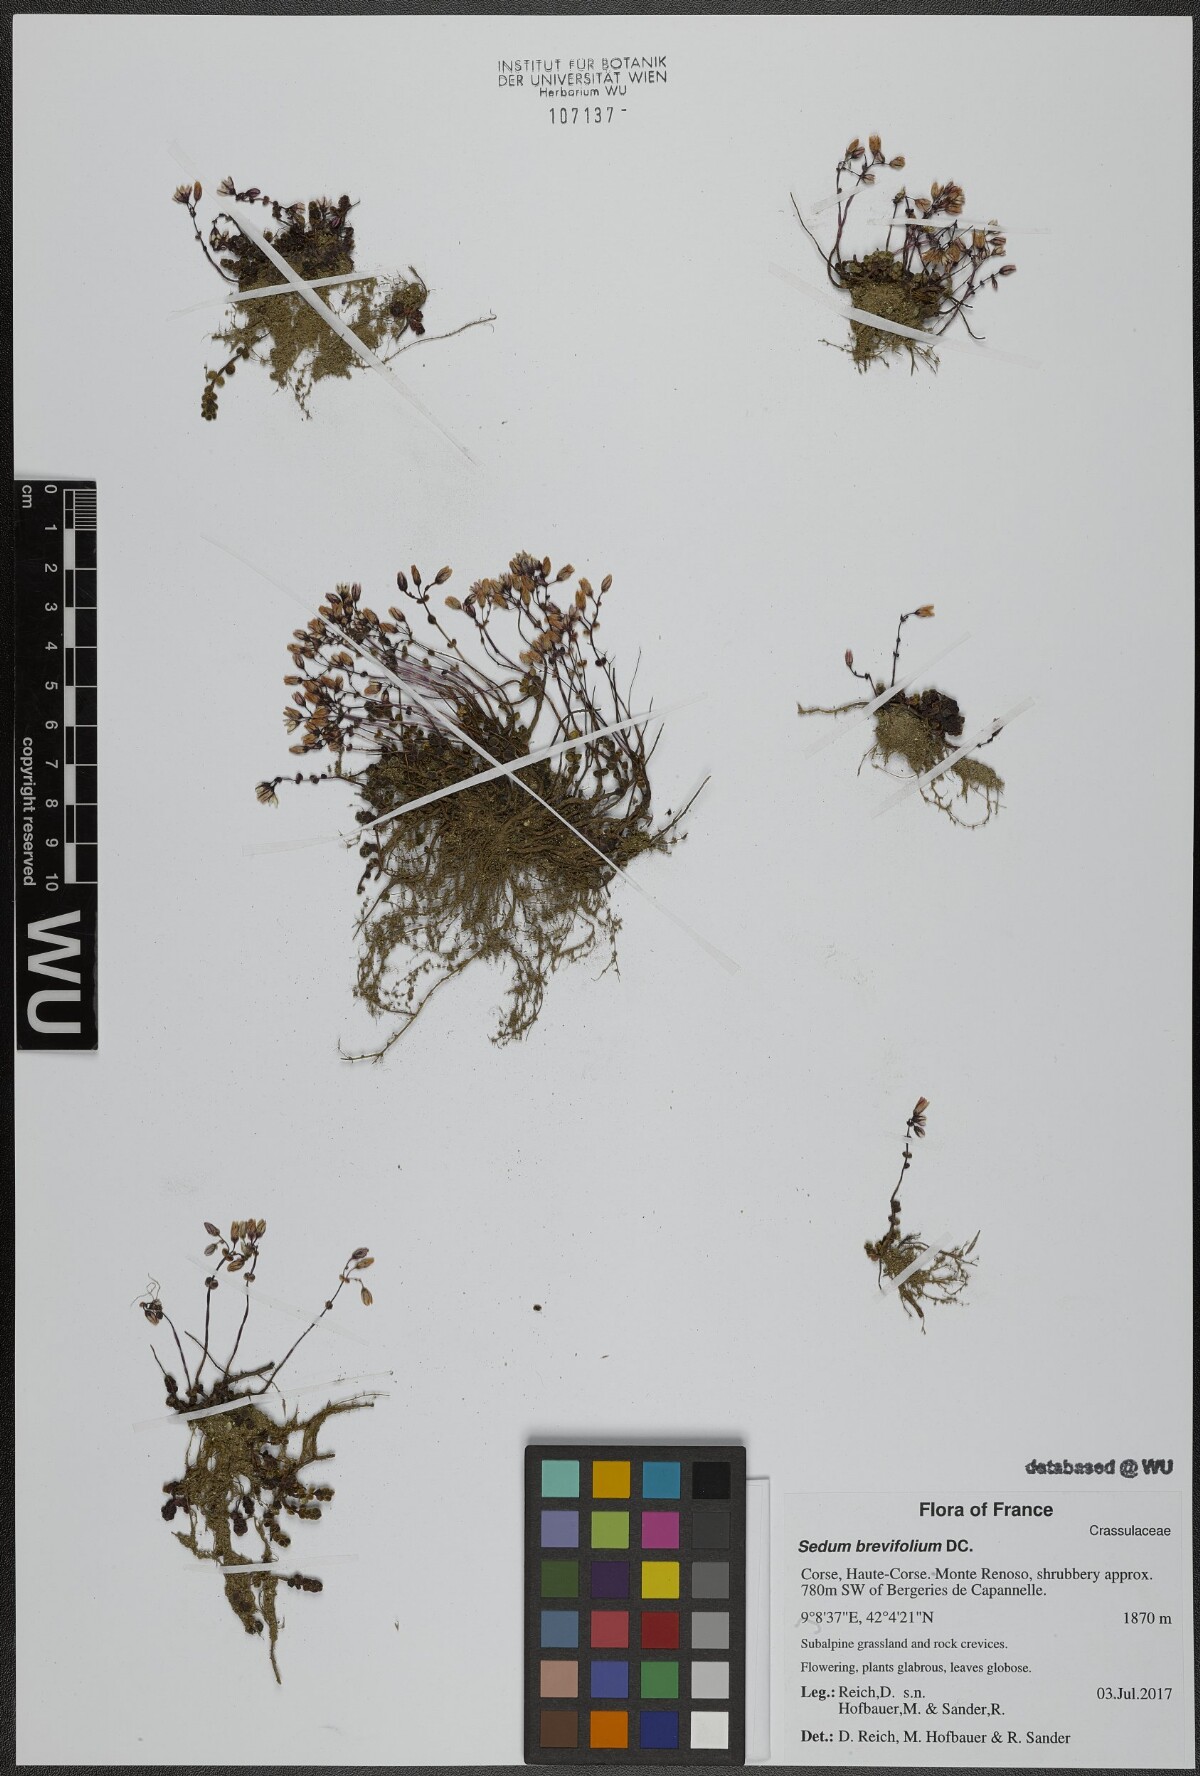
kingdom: Plantae
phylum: Tracheophyta
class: Magnoliopsida
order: Saxifragales
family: Crassulaceae
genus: Sedum
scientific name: Sedum brevifolium
